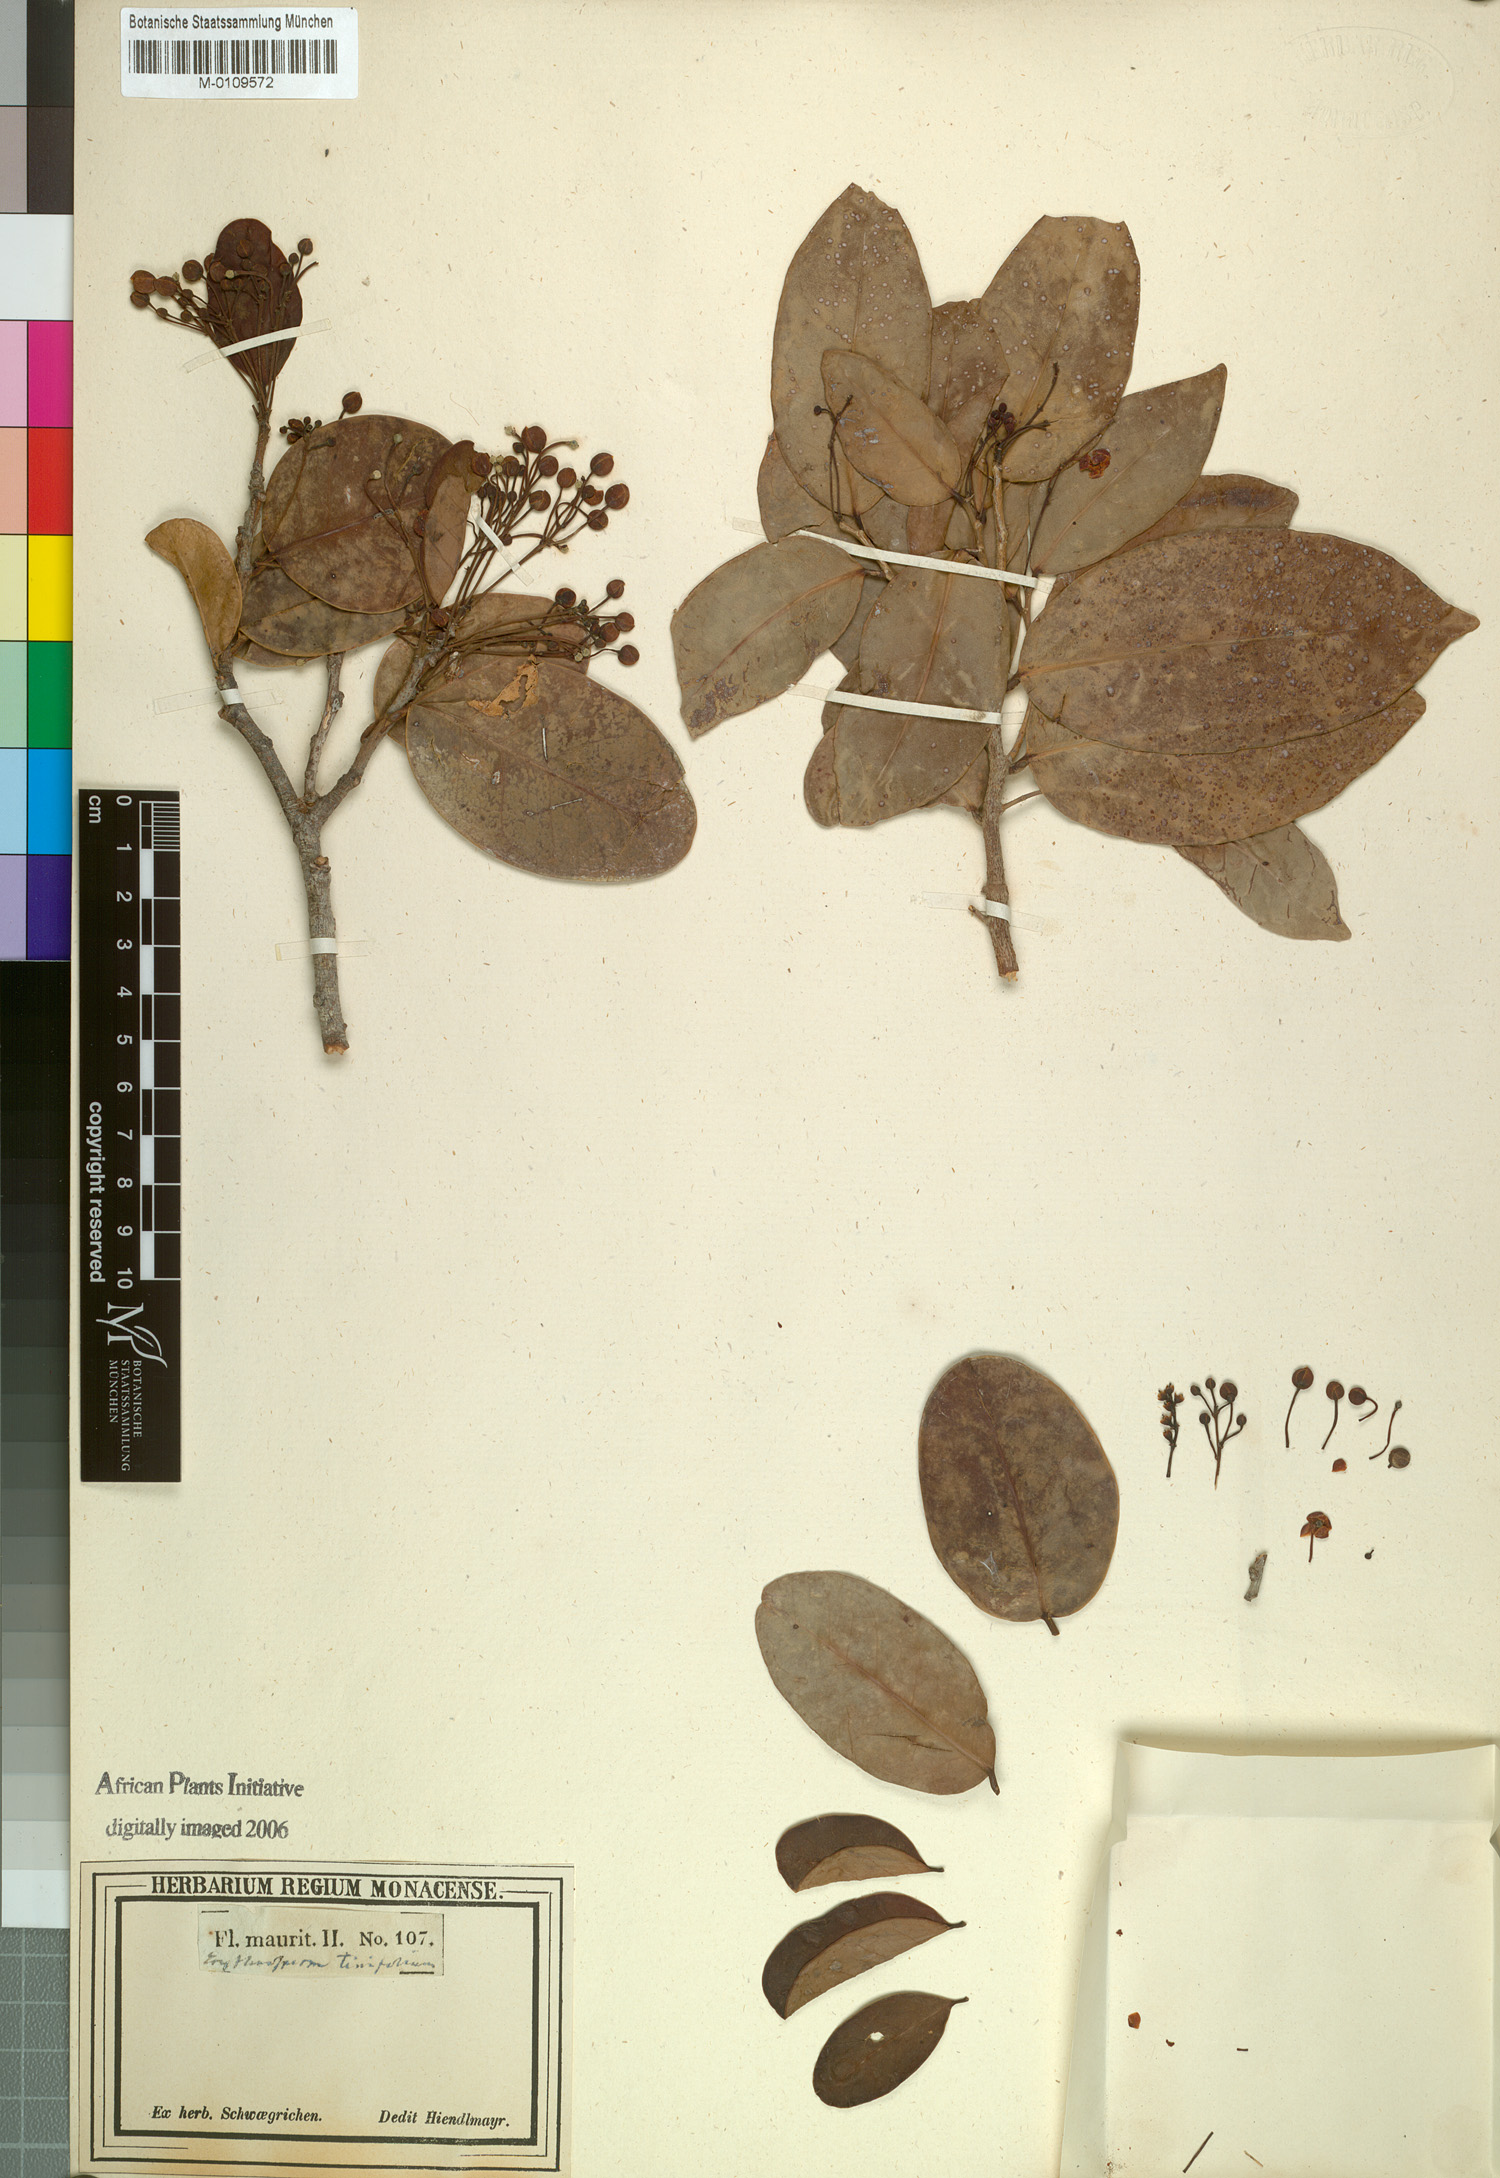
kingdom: Plantae
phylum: Tracheophyta
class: Magnoliopsida
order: Malpighiales
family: Achariaceae
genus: Erythrospermum
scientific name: Erythrospermum
